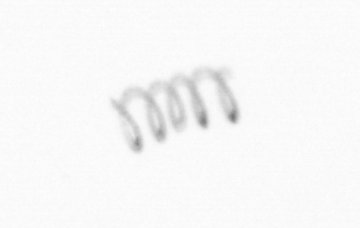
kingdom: Chromista
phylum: Ochrophyta
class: Bacillariophyceae
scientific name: Bacillariophyceae
